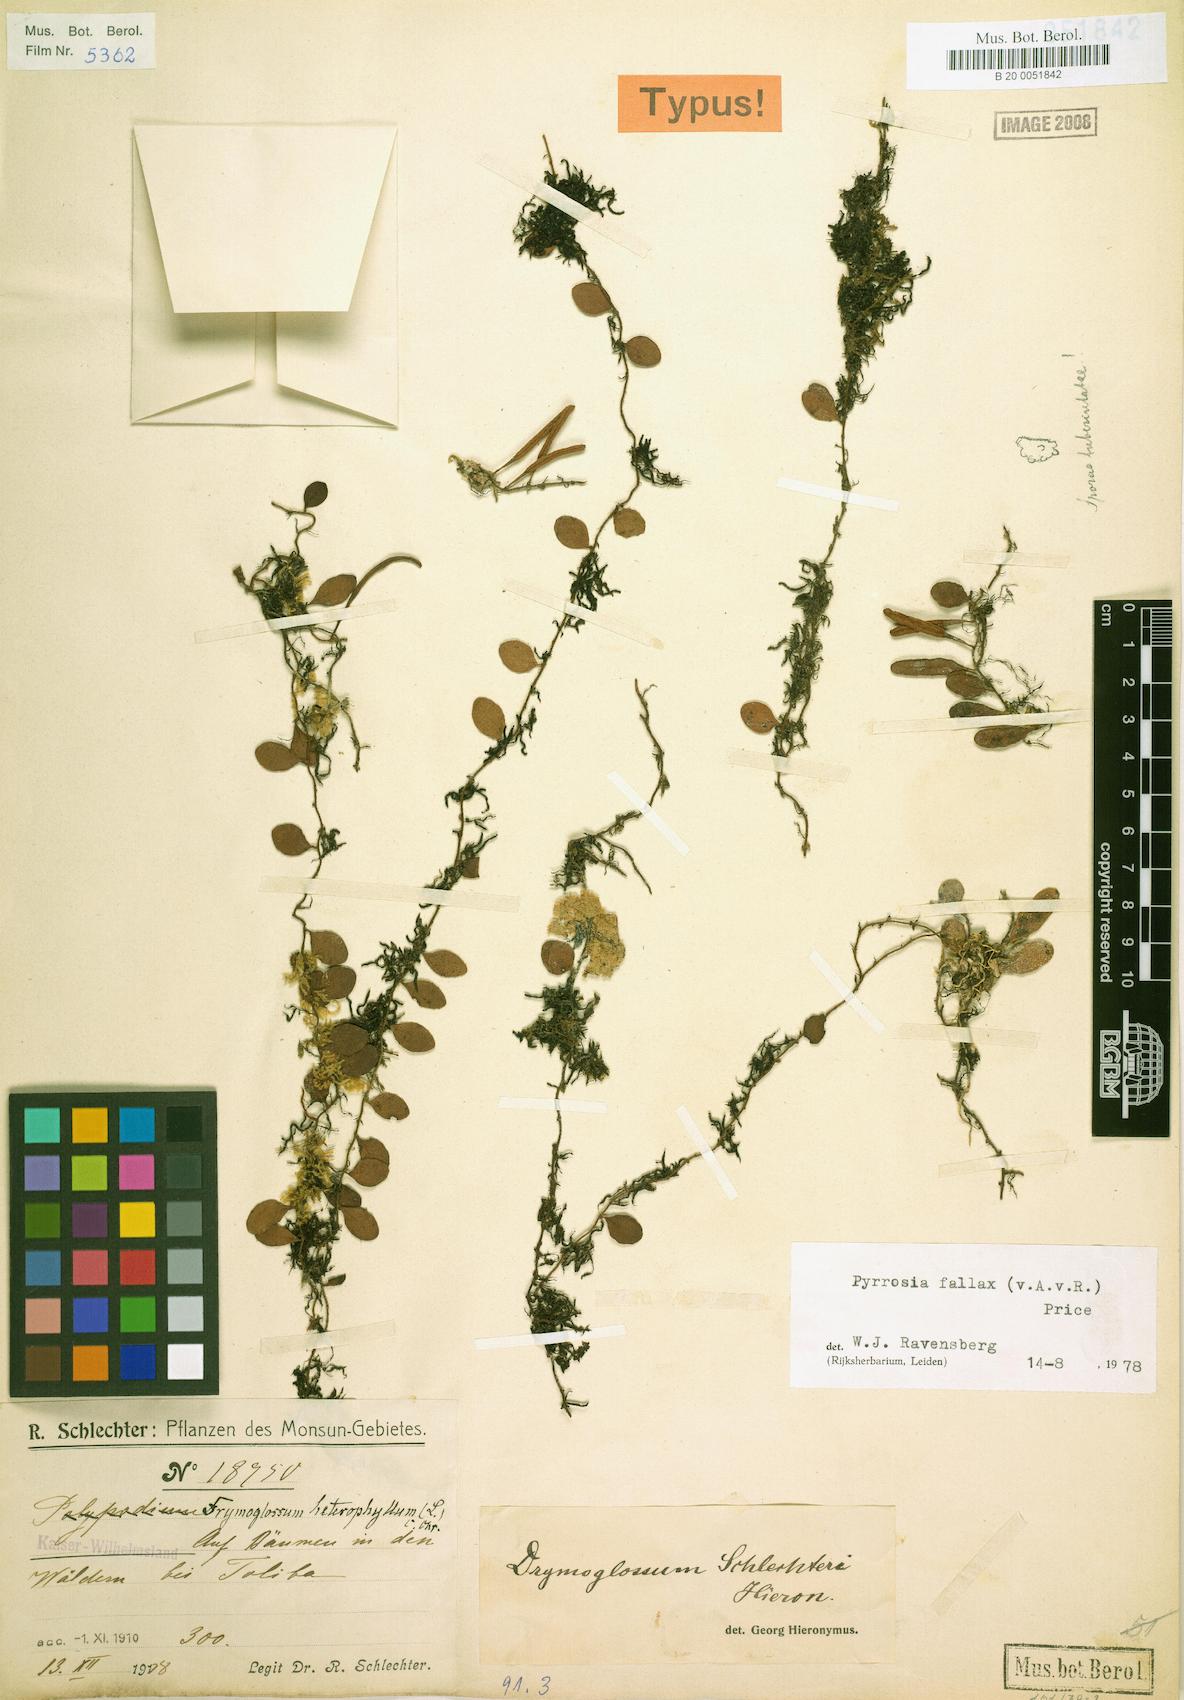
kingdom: Plantae
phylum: Tracheophyta
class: Polypodiopsida
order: Polypodiales
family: Polypodiaceae
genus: Pyrrosia
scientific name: Pyrrosia fallax
